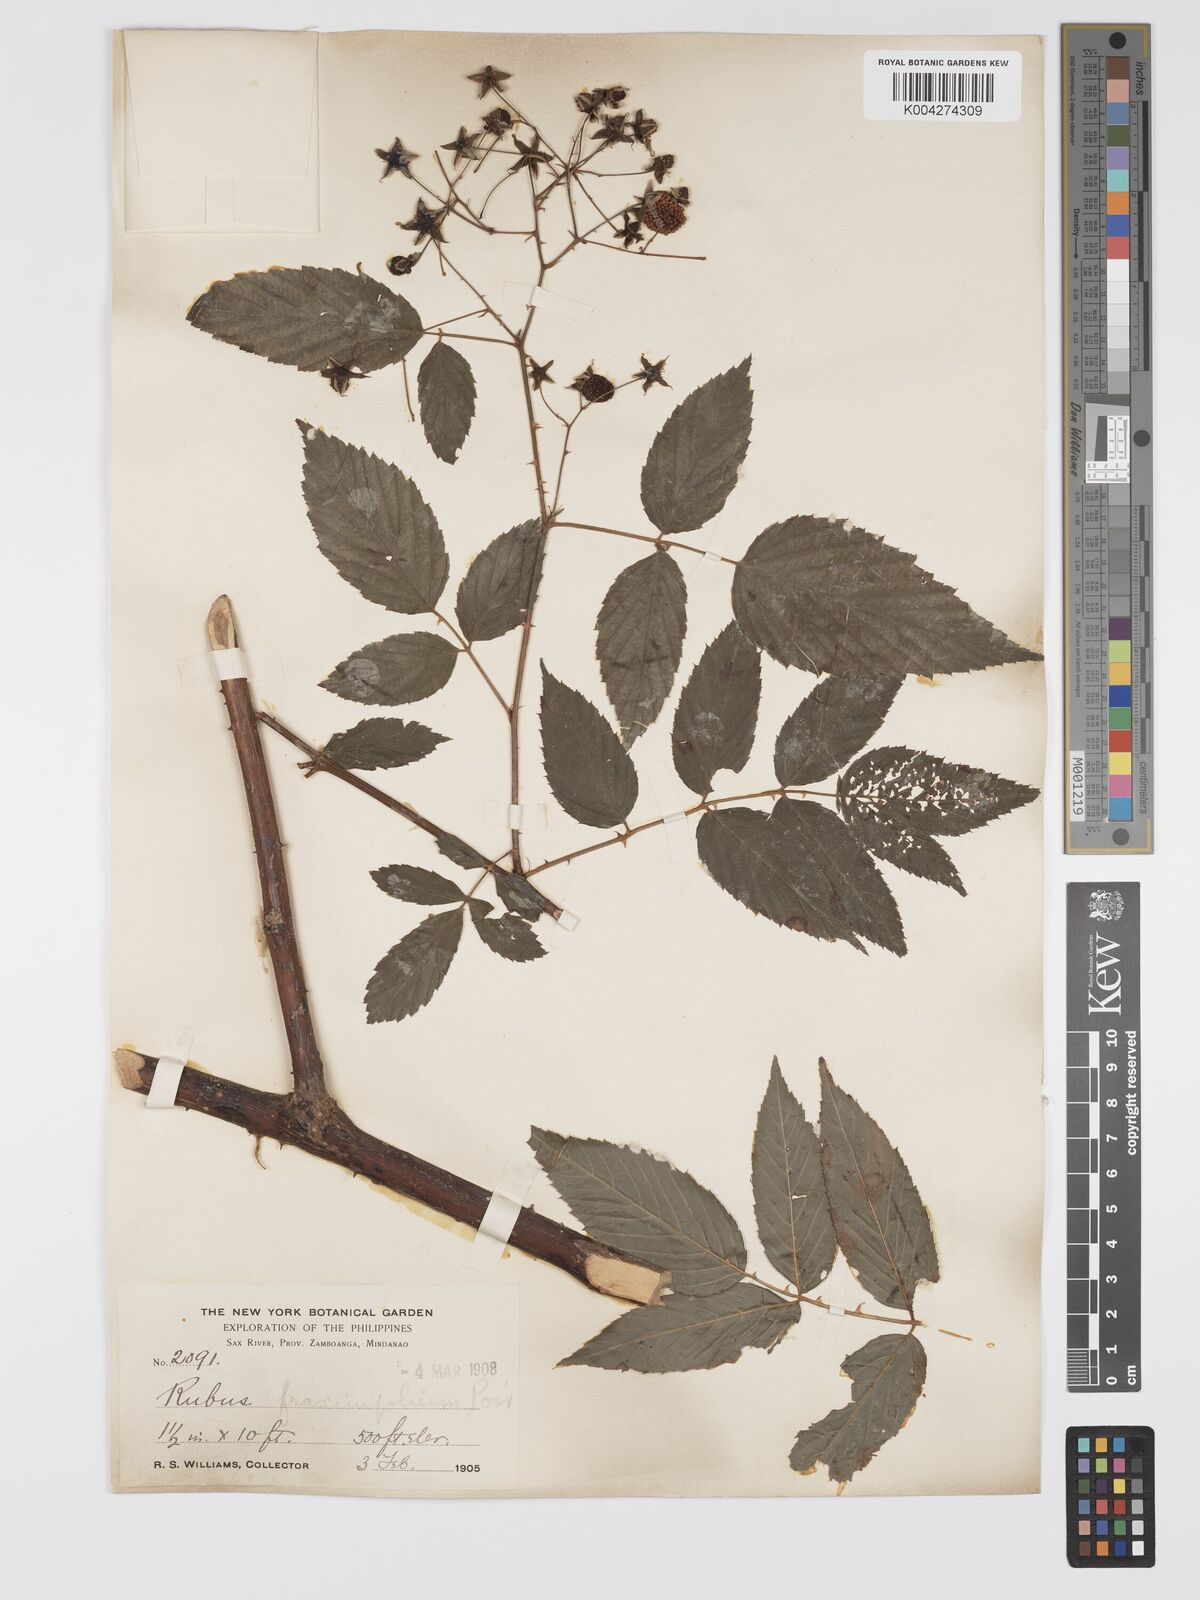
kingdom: Plantae
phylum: Tracheophyta
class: Magnoliopsida
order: Rosales
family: Rosaceae
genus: Rubus
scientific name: Rubus fraxinifolius
